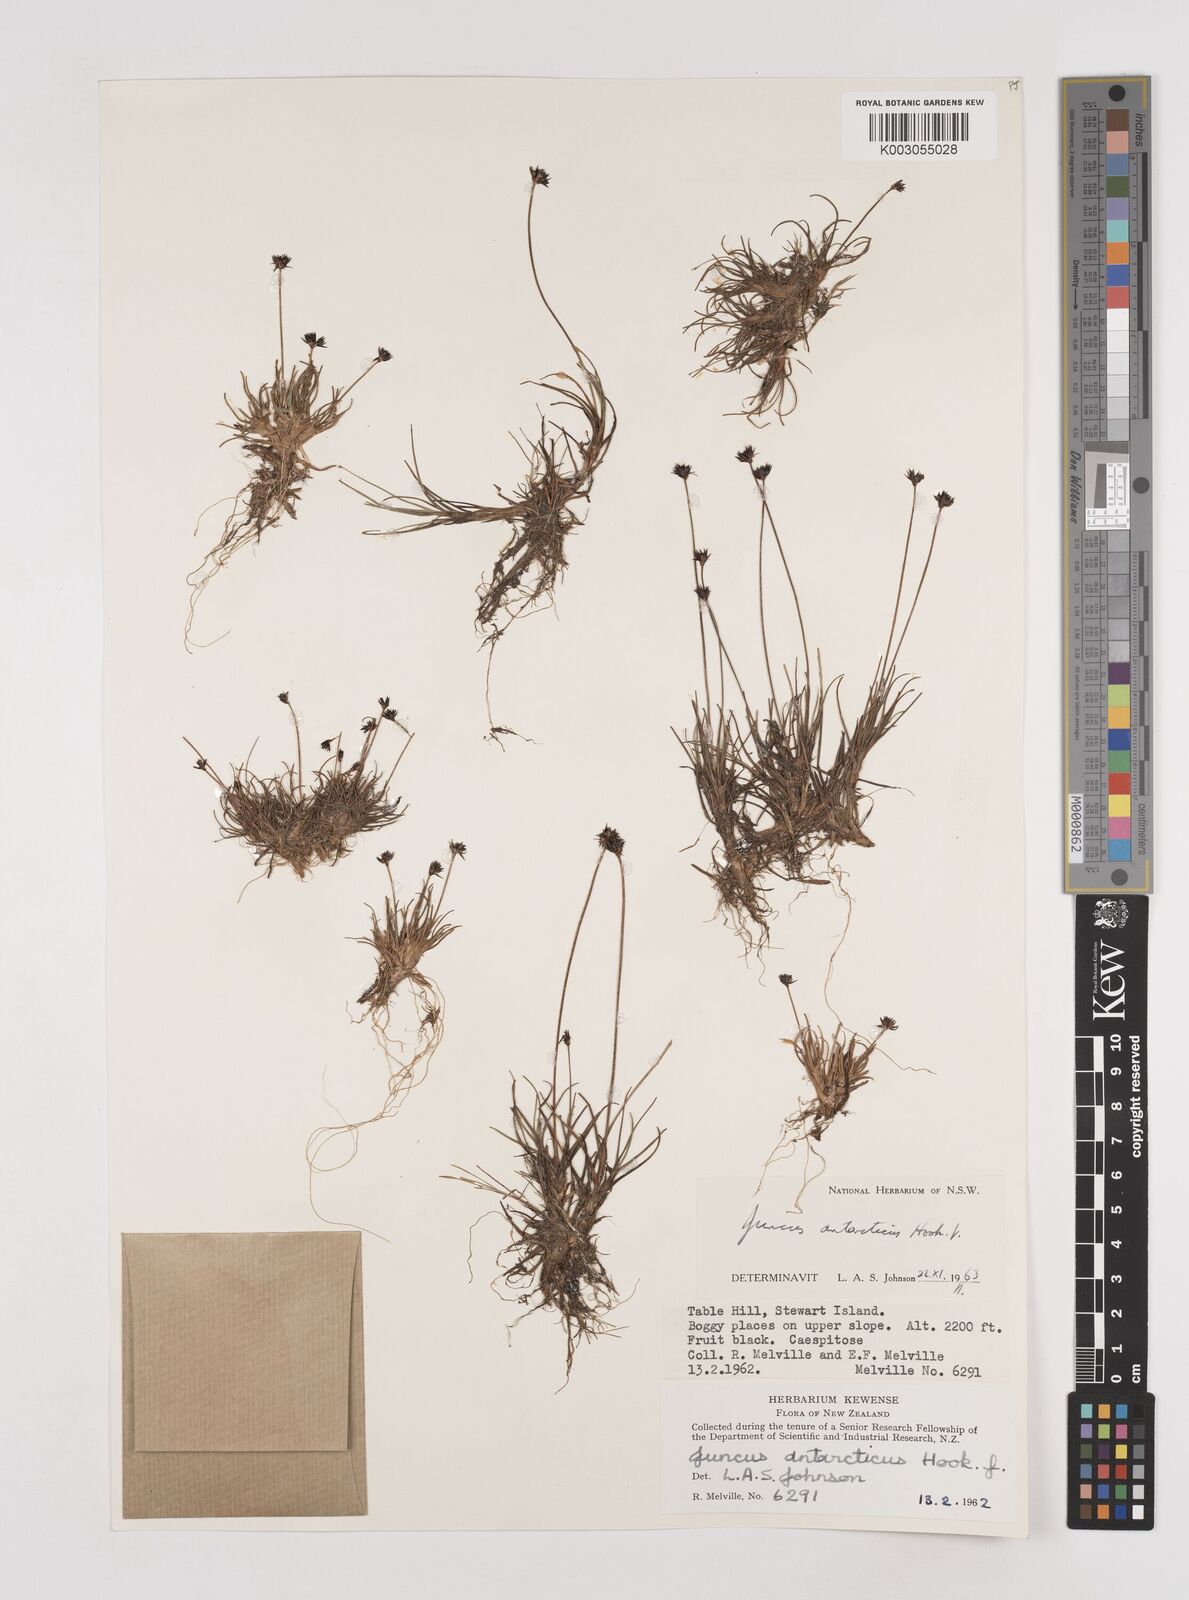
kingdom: Plantae
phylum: Tracheophyta
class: Liliopsida
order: Poales
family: Juncaceae
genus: Juncus
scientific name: Juncus antarcticus
